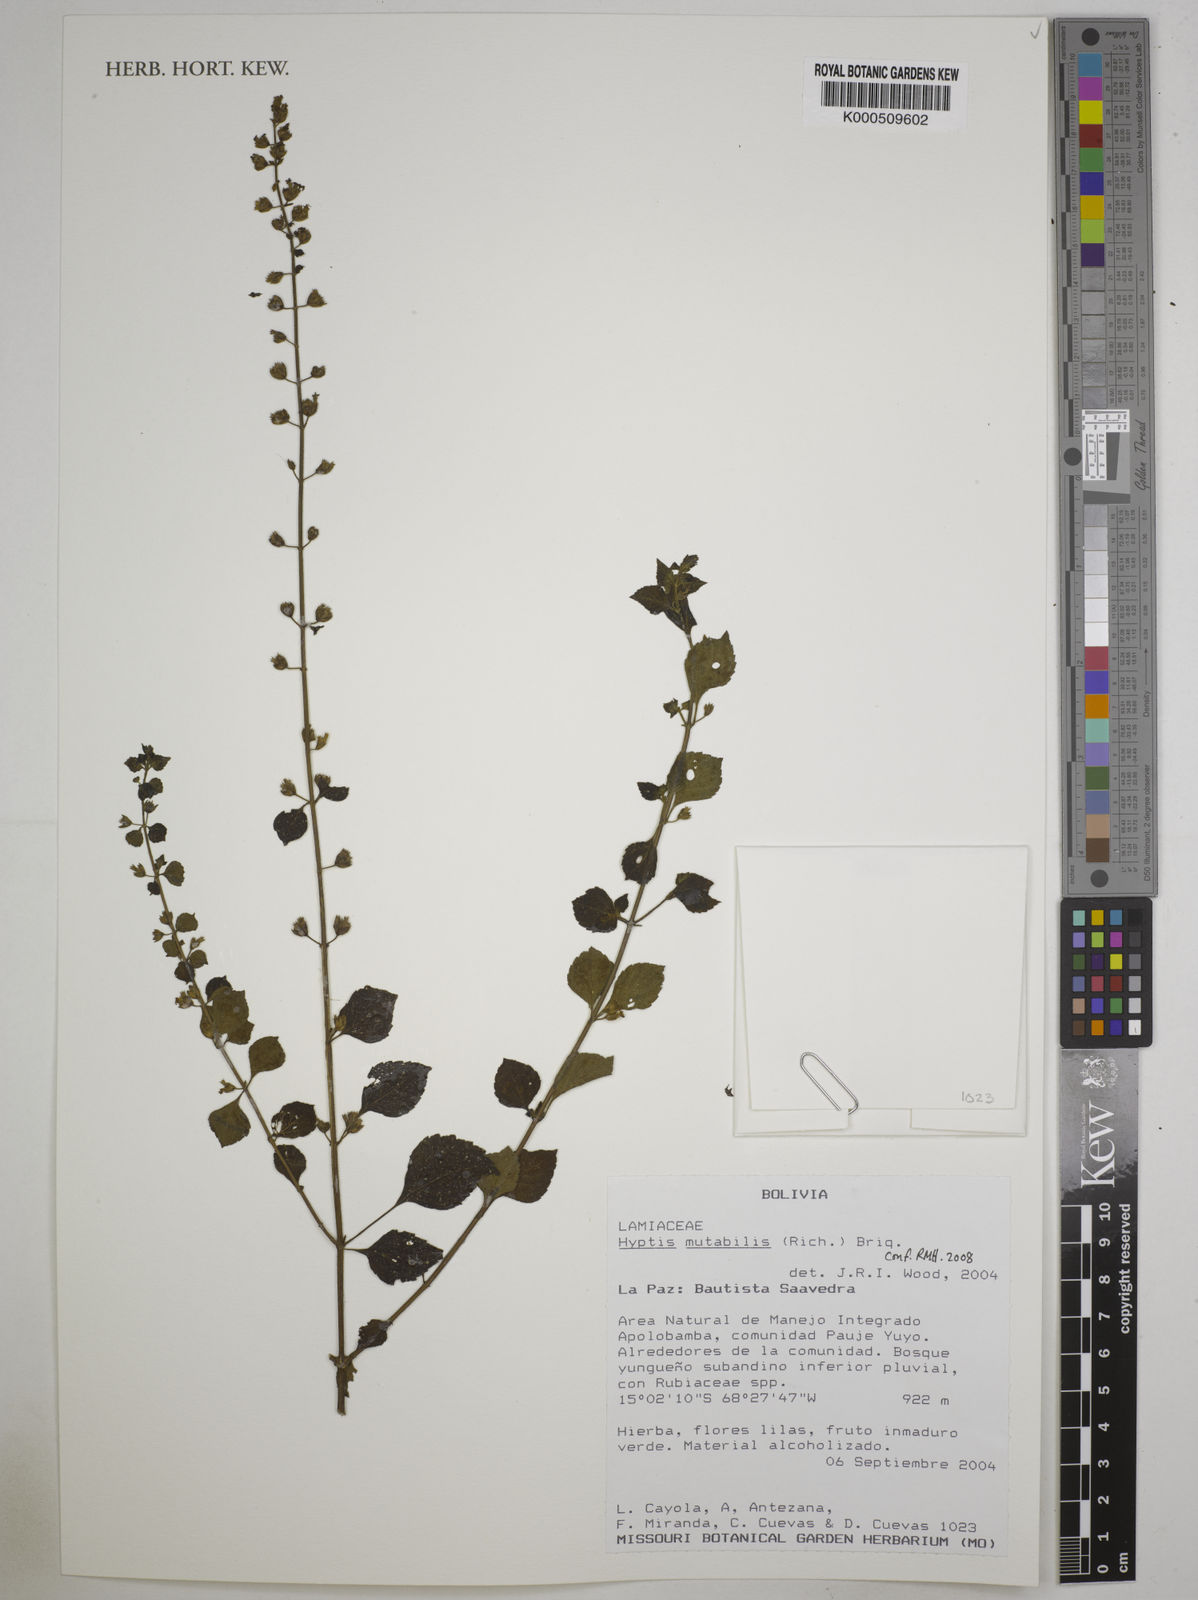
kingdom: Plantae
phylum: Tracheophyta
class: Magnoliopsida
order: Lamiales
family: Lamiaceae
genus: Cantinoa
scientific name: Cantinoa mutabilis
